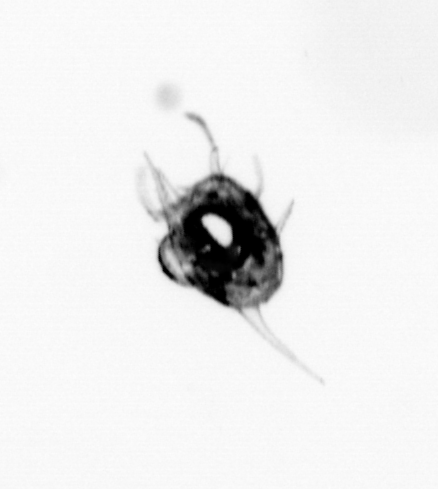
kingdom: Animalia
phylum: Arthropoda
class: Malacostraca
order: Decapoda
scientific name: Decapoda
